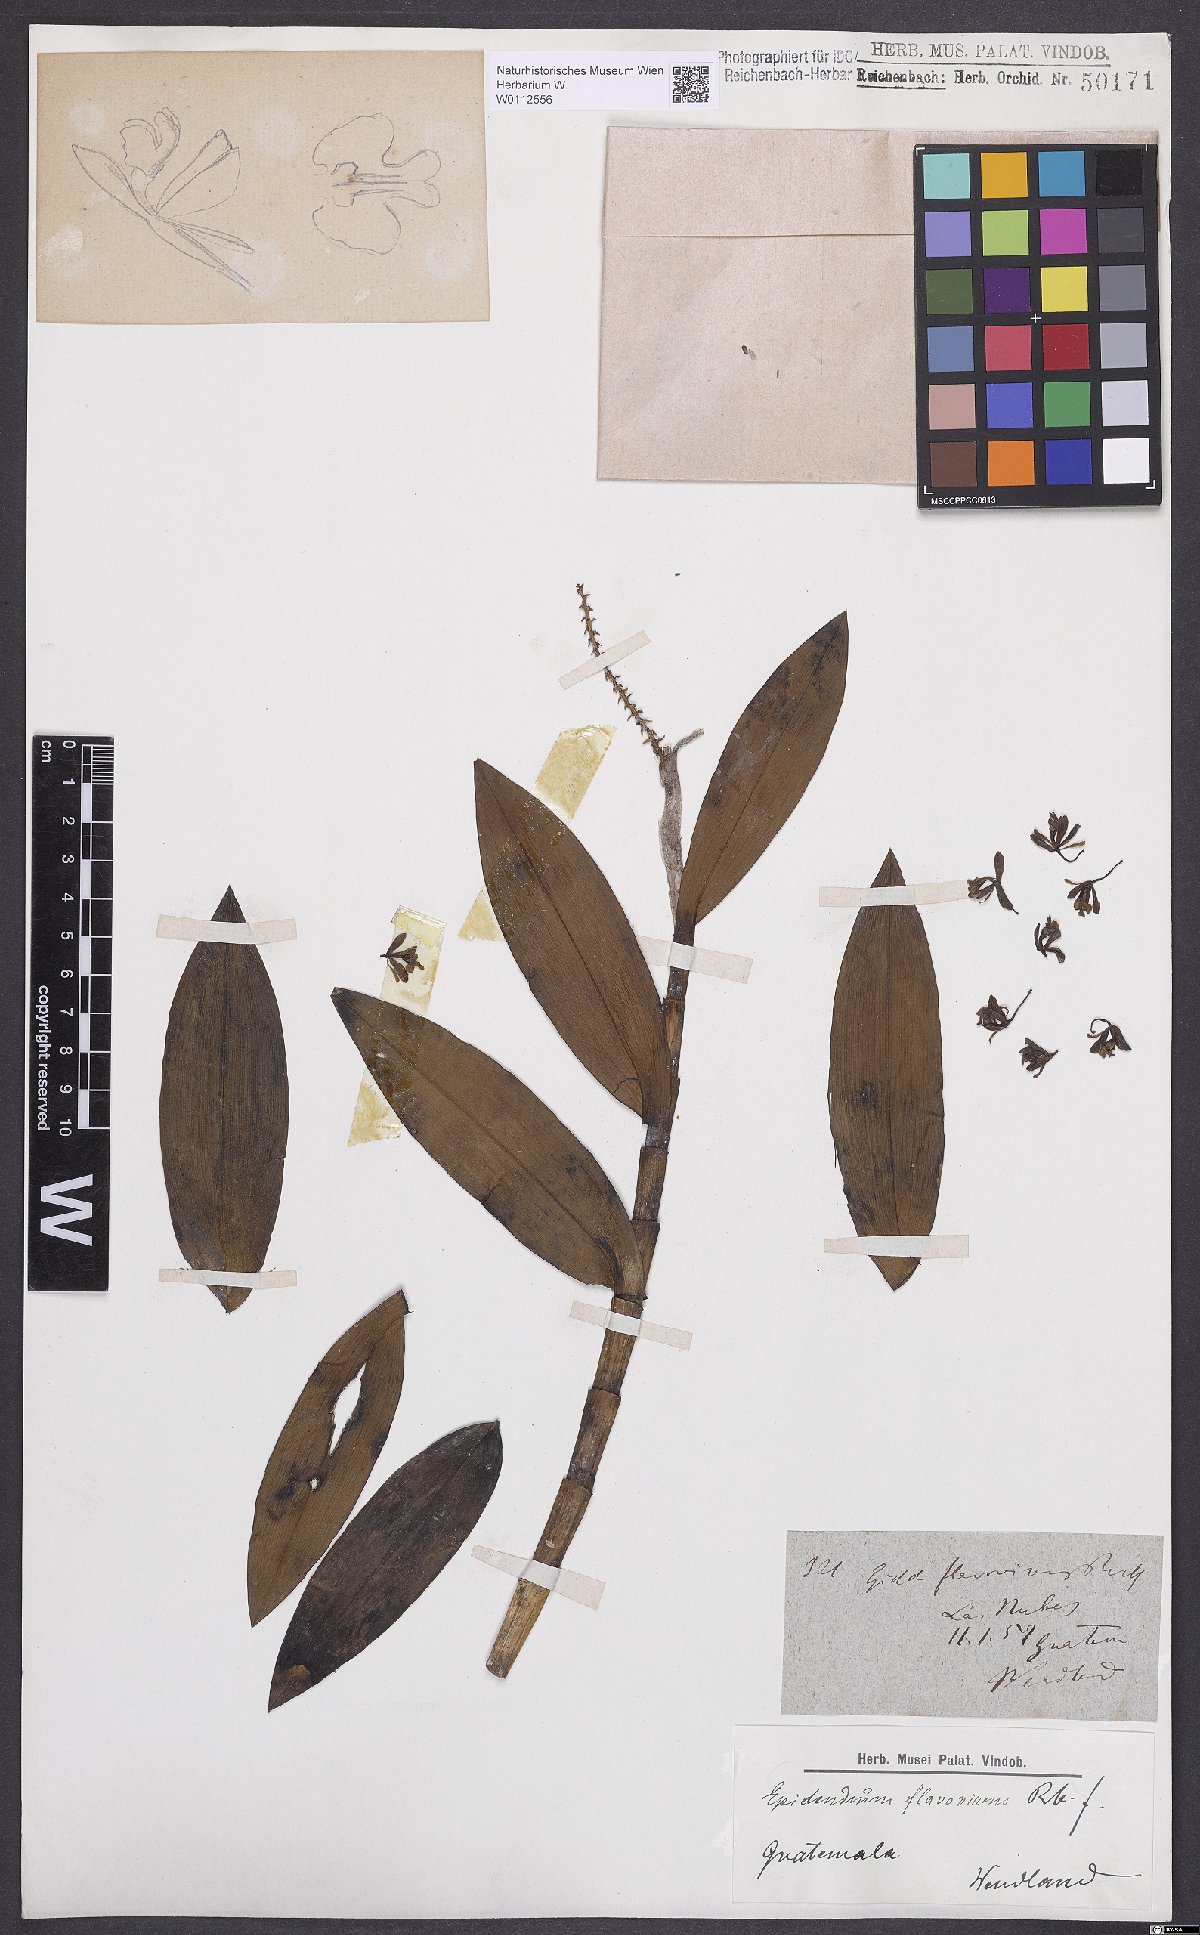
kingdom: Plantae
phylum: Tracheophyta
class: Liliopsida
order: Asparagales
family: Orchidaceae
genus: Epidendrum
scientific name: Epidendrum clowesii
